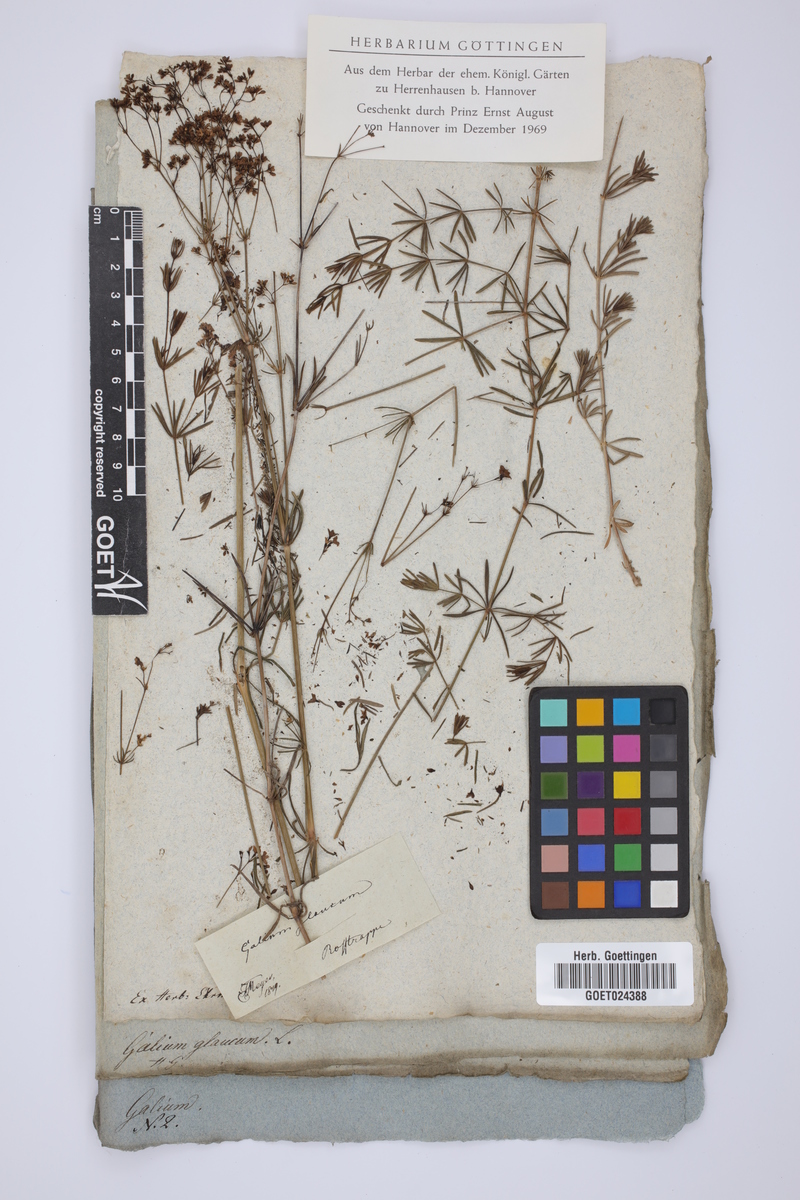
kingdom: Plantae
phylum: Tracheophyta
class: Magnoliopsida
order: Gentianales
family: Rubiaceae
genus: Galium
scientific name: Galium glaucum
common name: Waxy bedstraw
